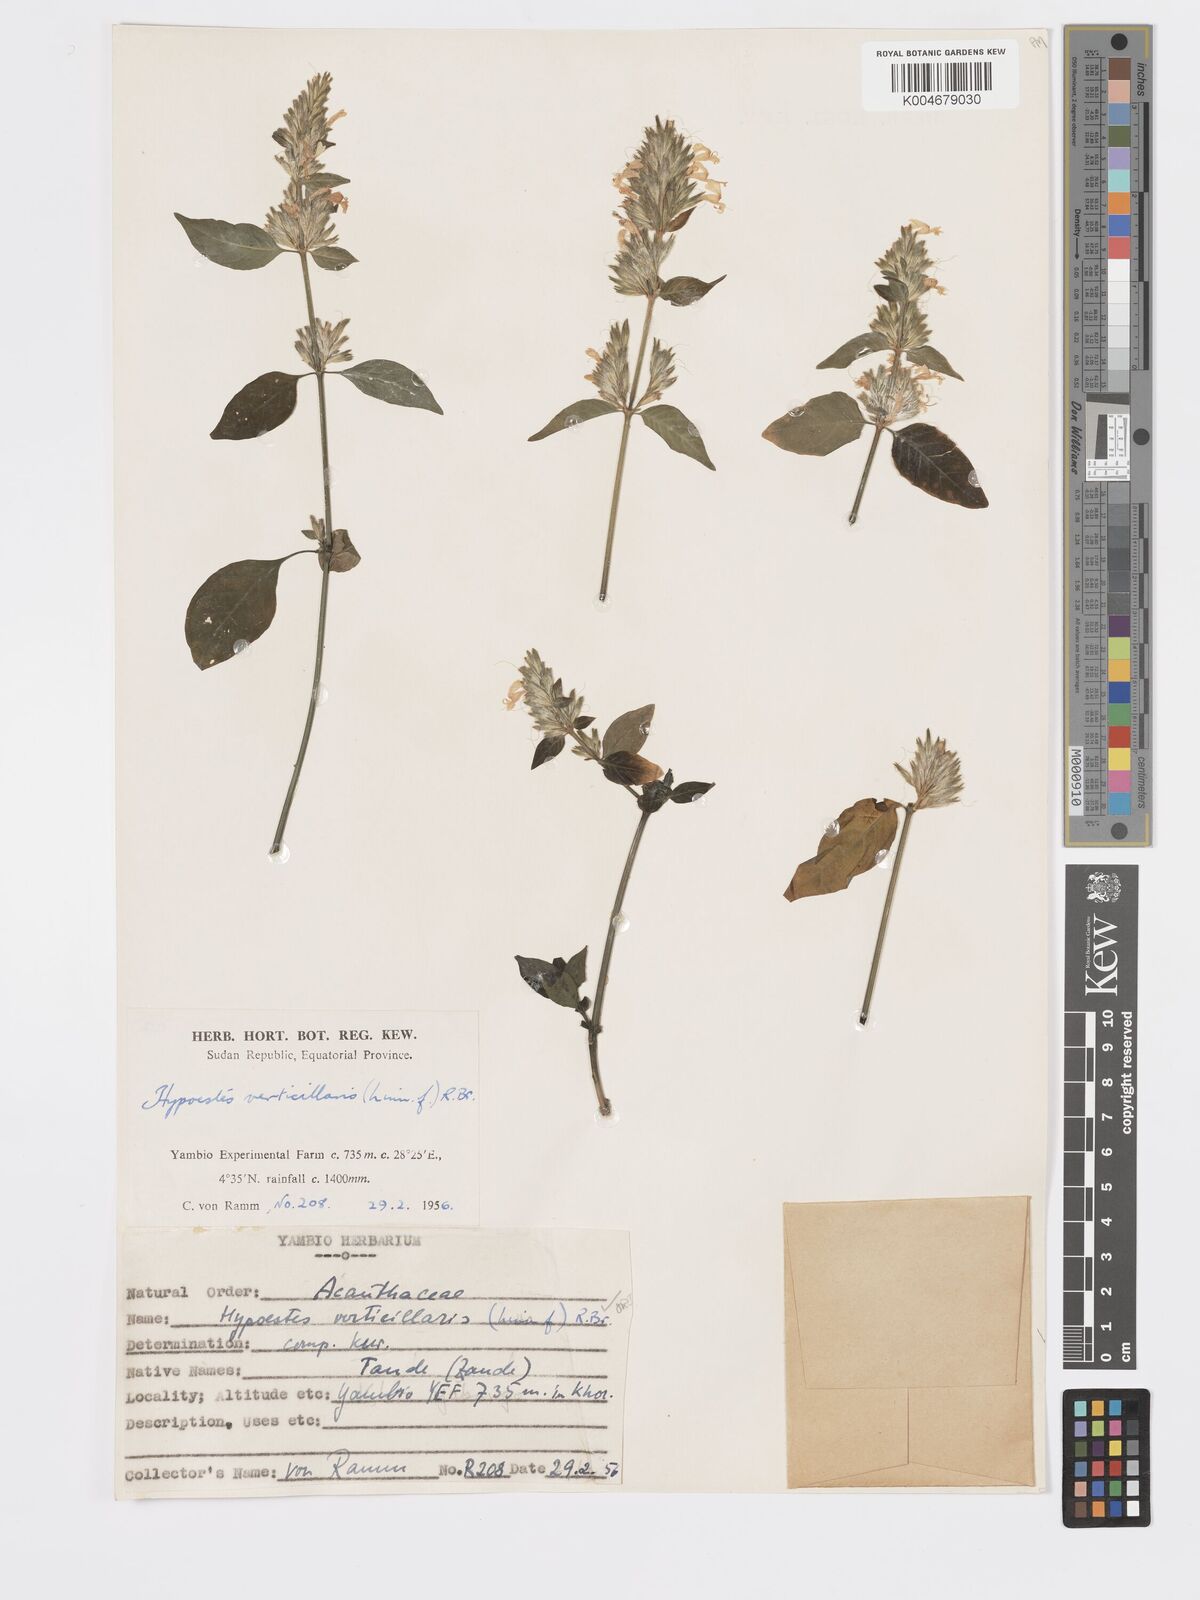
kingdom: Plantae
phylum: Tracheophyta
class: Magnoliopsida
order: Lamiales
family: Acanthaceae
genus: Hypoestes
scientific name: Hypoestes forskaolii
